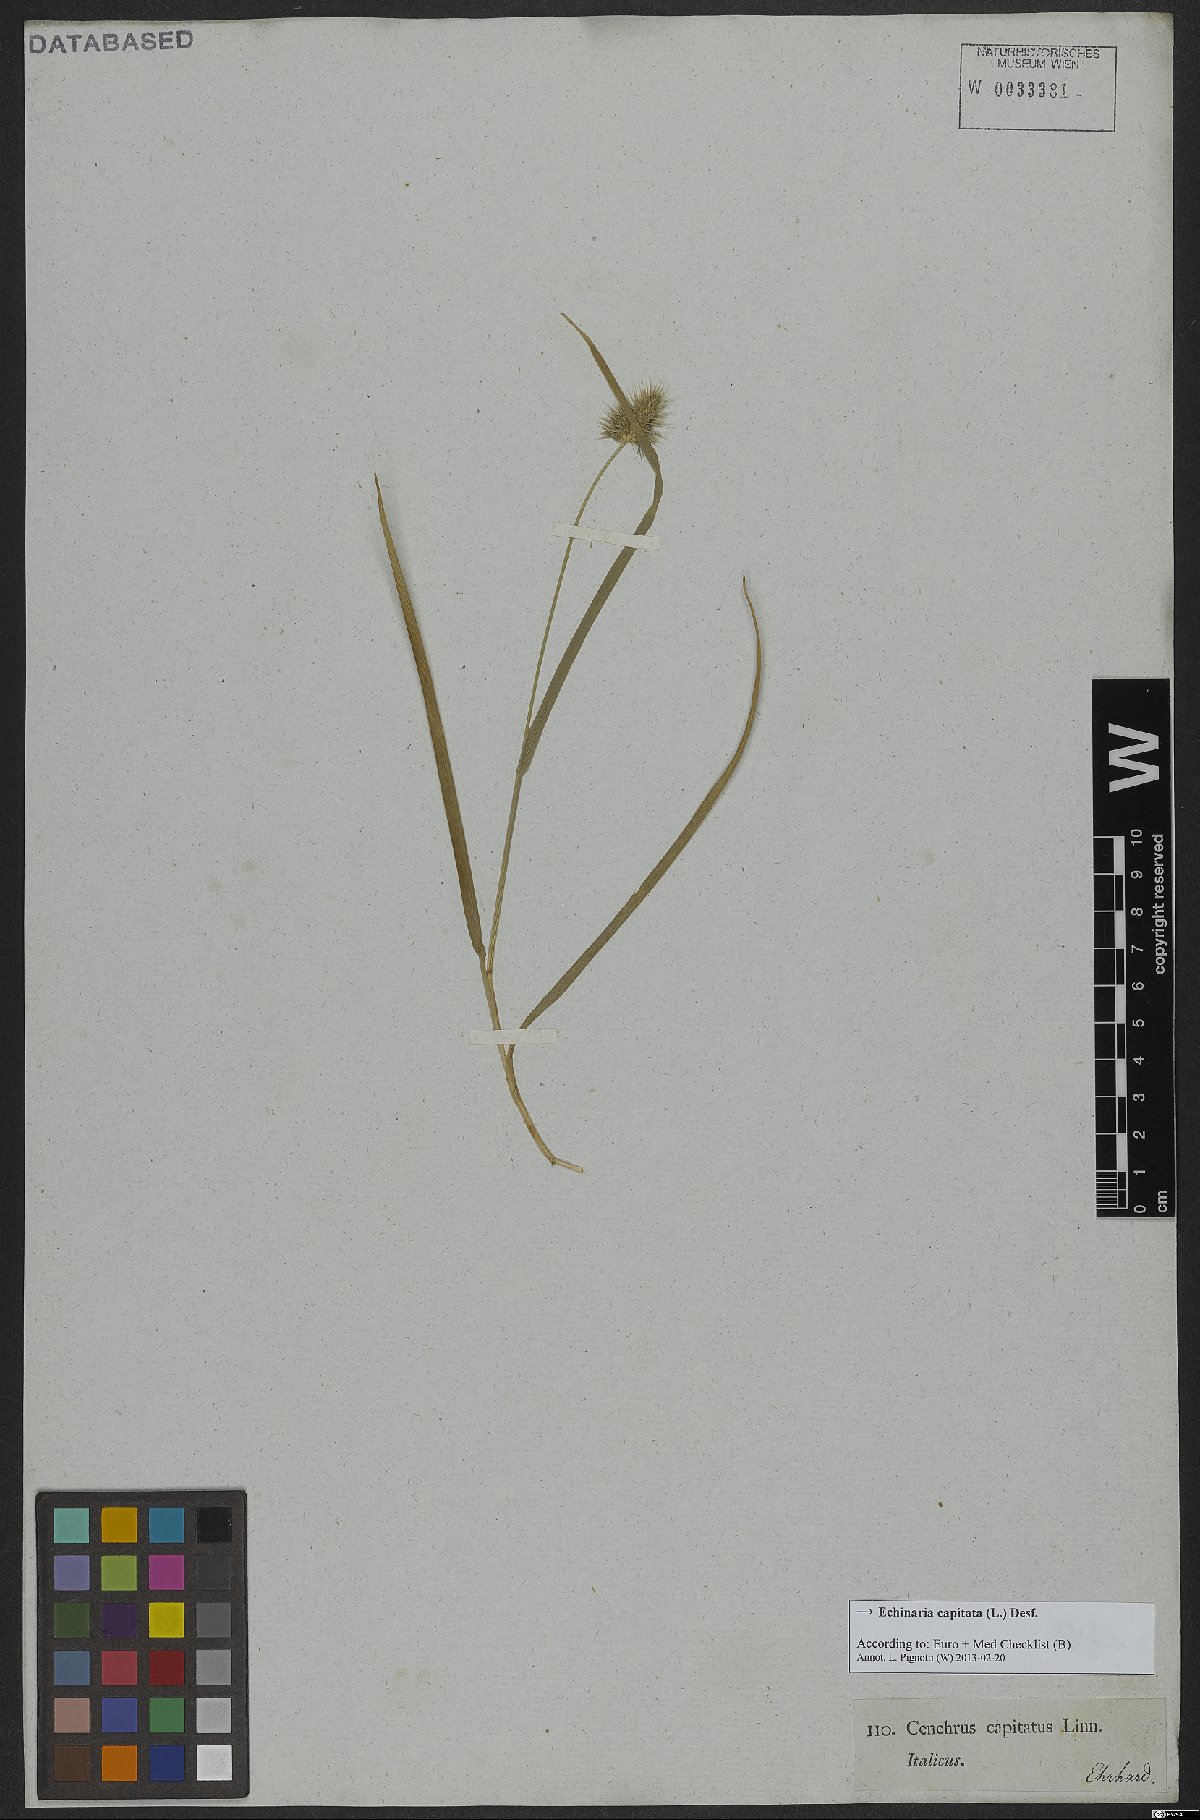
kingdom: Plantae
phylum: Tracheophyta
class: Liliopsida
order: Poales
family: Poaceae
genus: Echinaria
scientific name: Echinaria capitata
